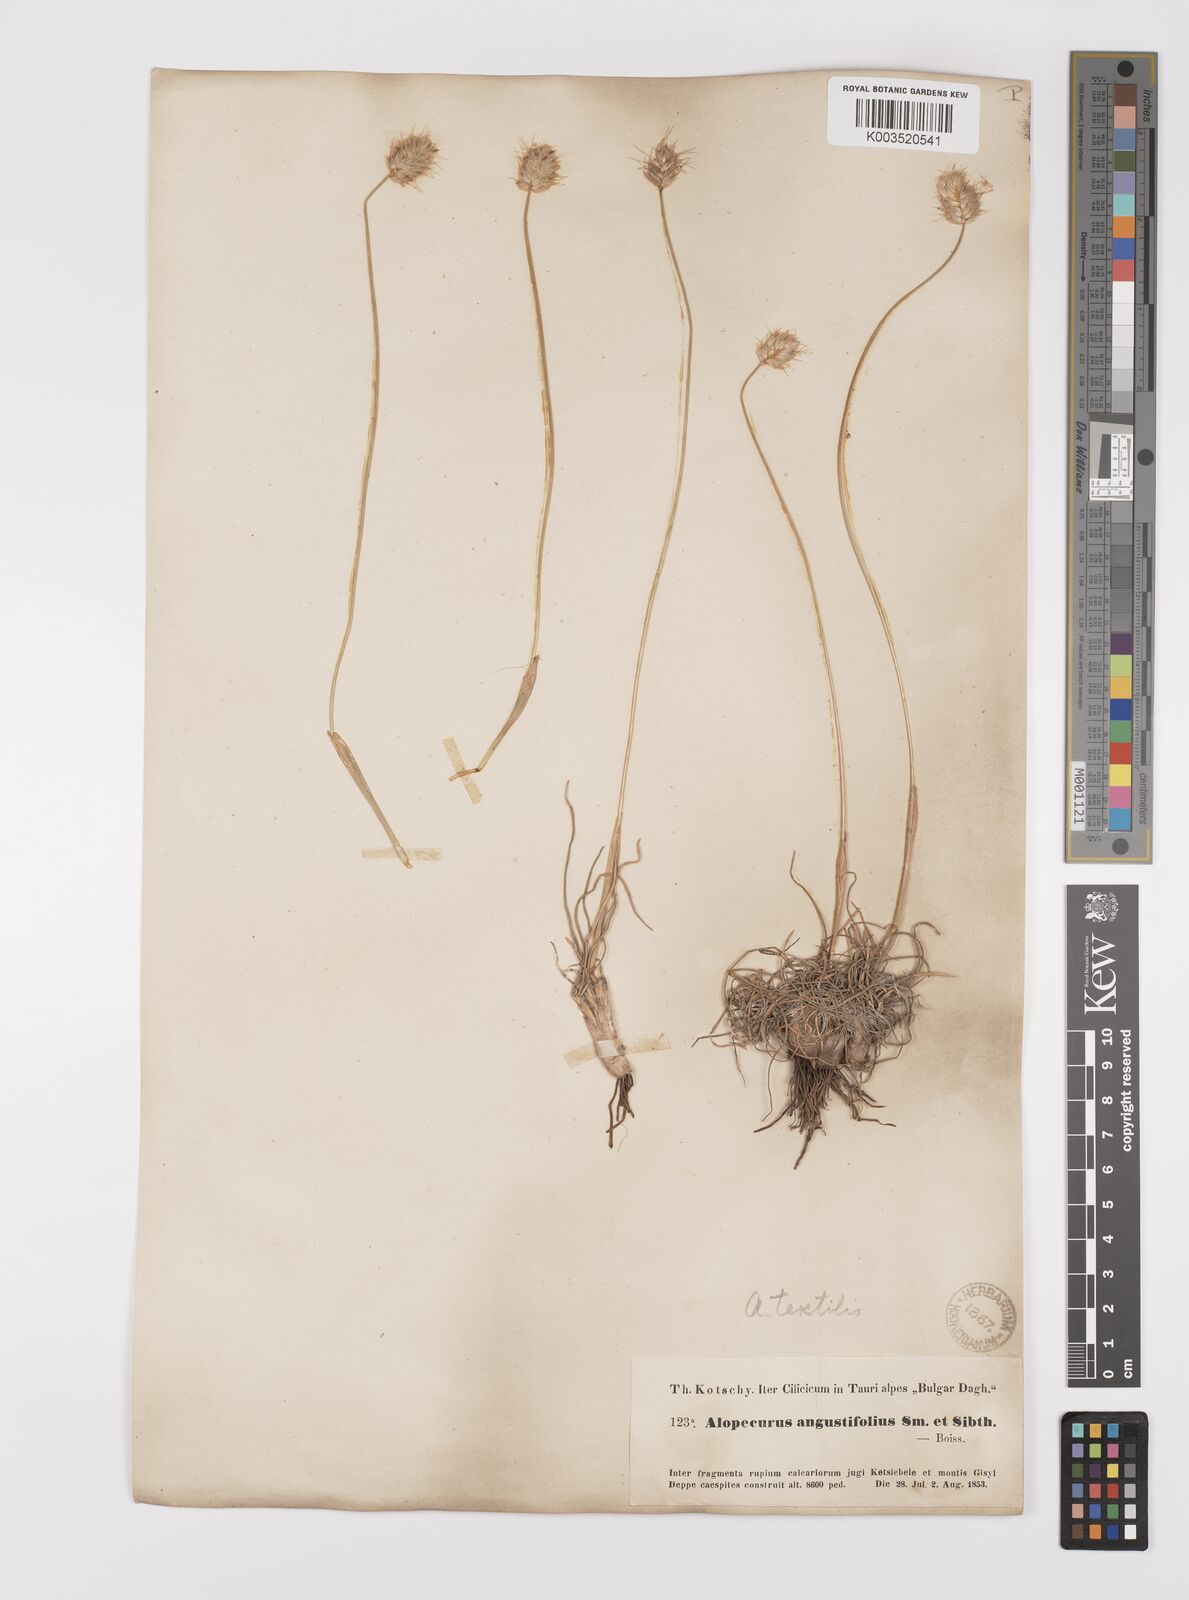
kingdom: Plantae
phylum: Tracheophyta
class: Liliopsida
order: Poales
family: Poaceae
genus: Alopecurus
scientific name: Alopecurus textilis
